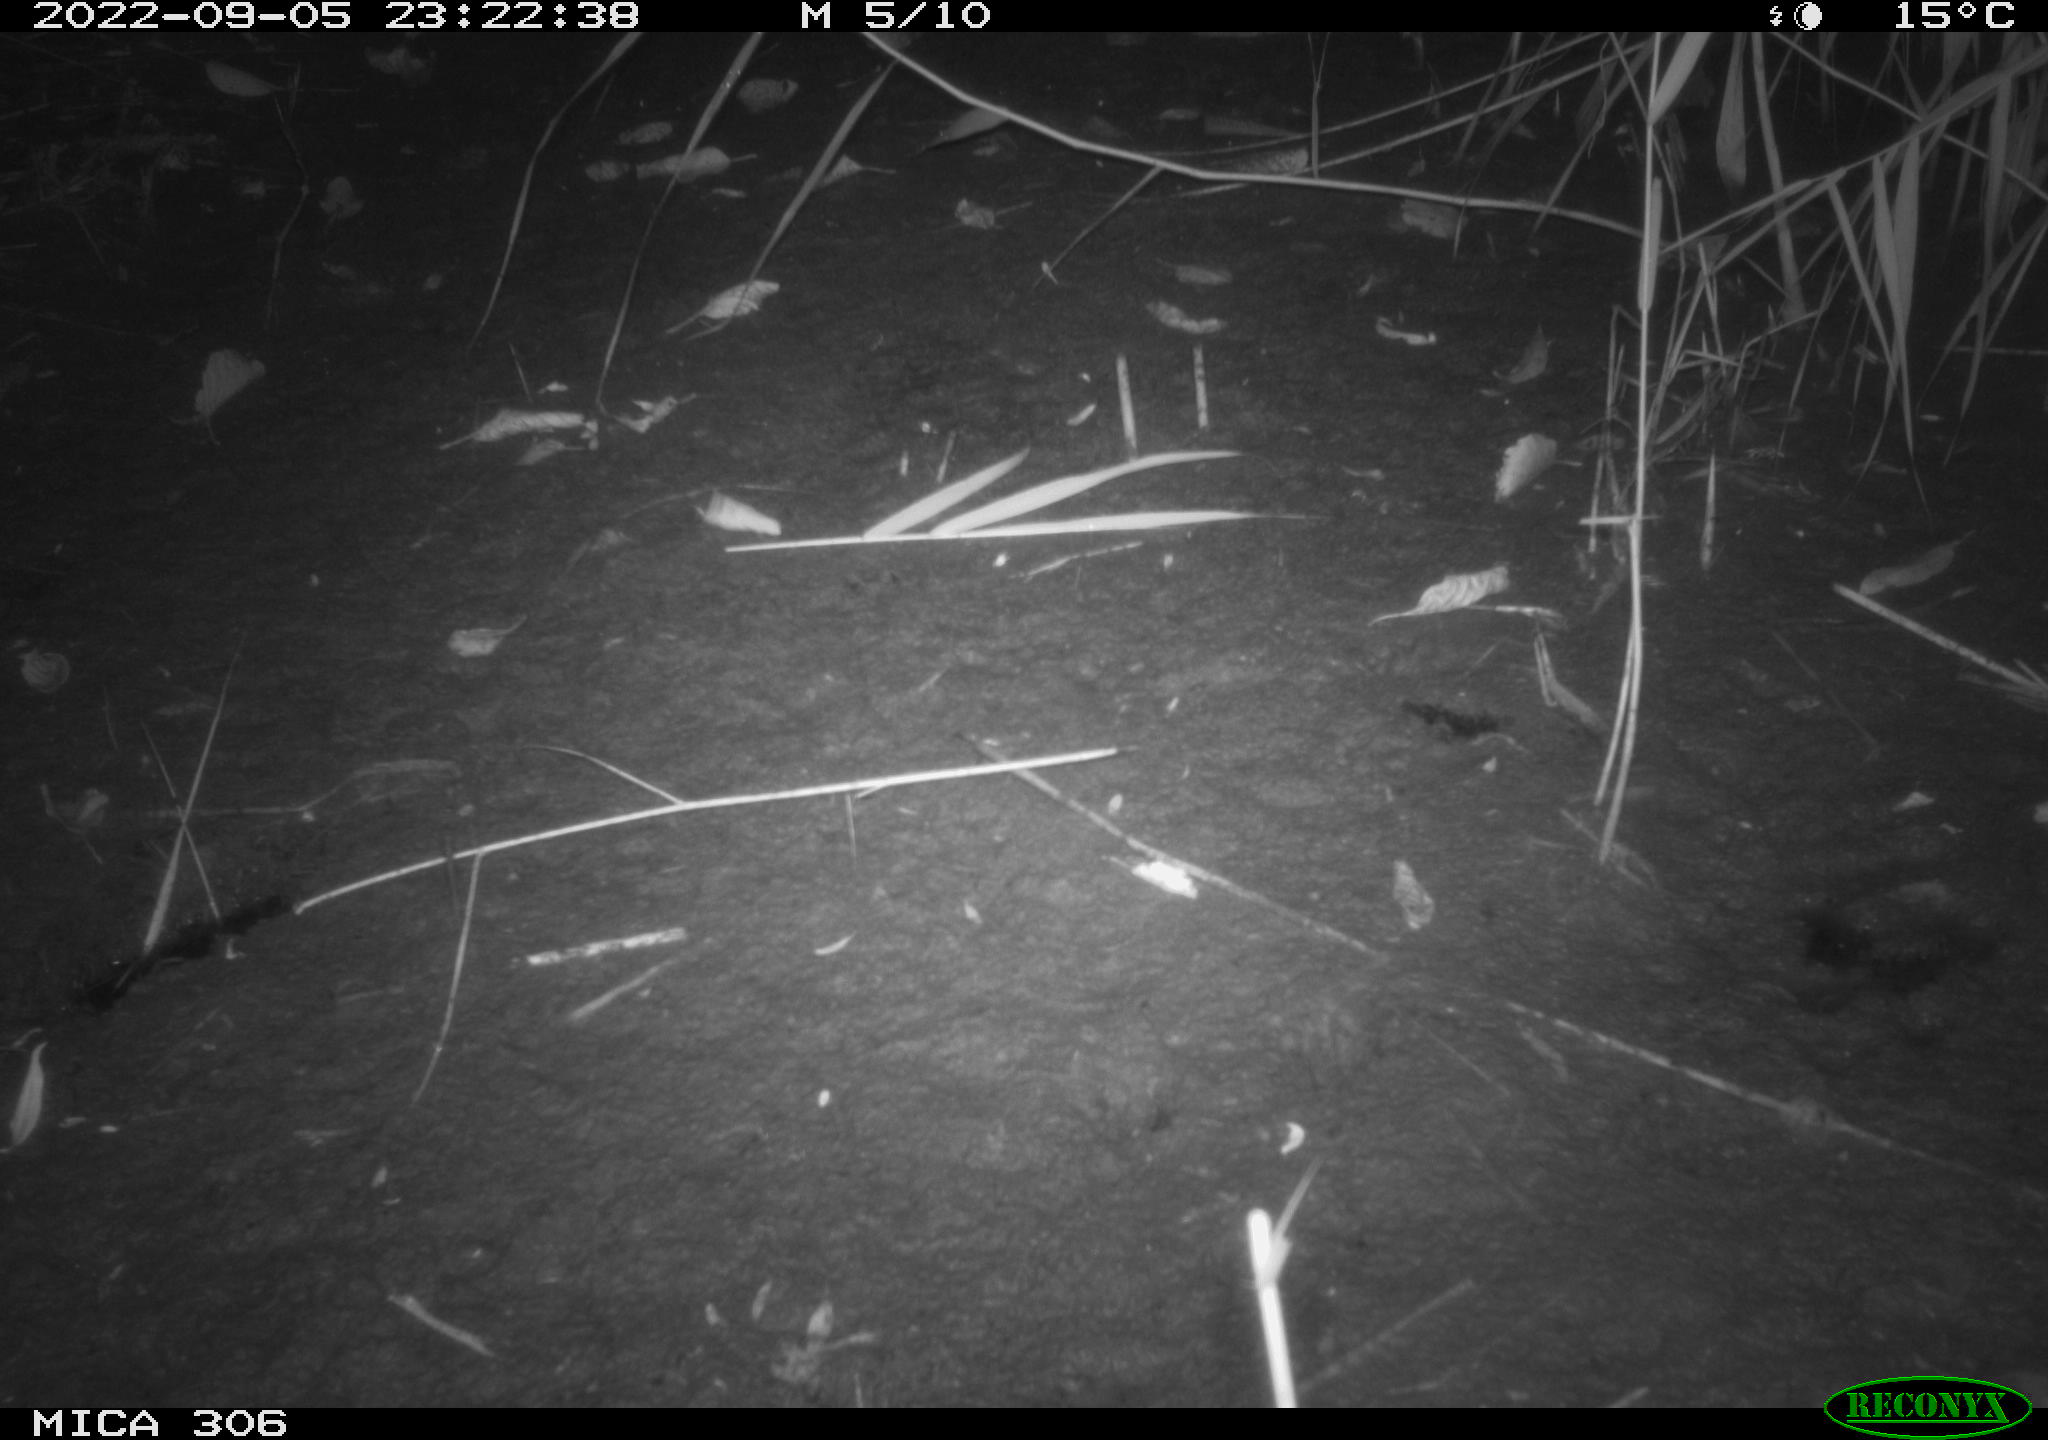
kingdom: Animalia
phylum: Chordata
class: Mammalia
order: Rodentia
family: Muridae
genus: Rattus
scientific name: Rattus norvegicus
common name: Brown rat
